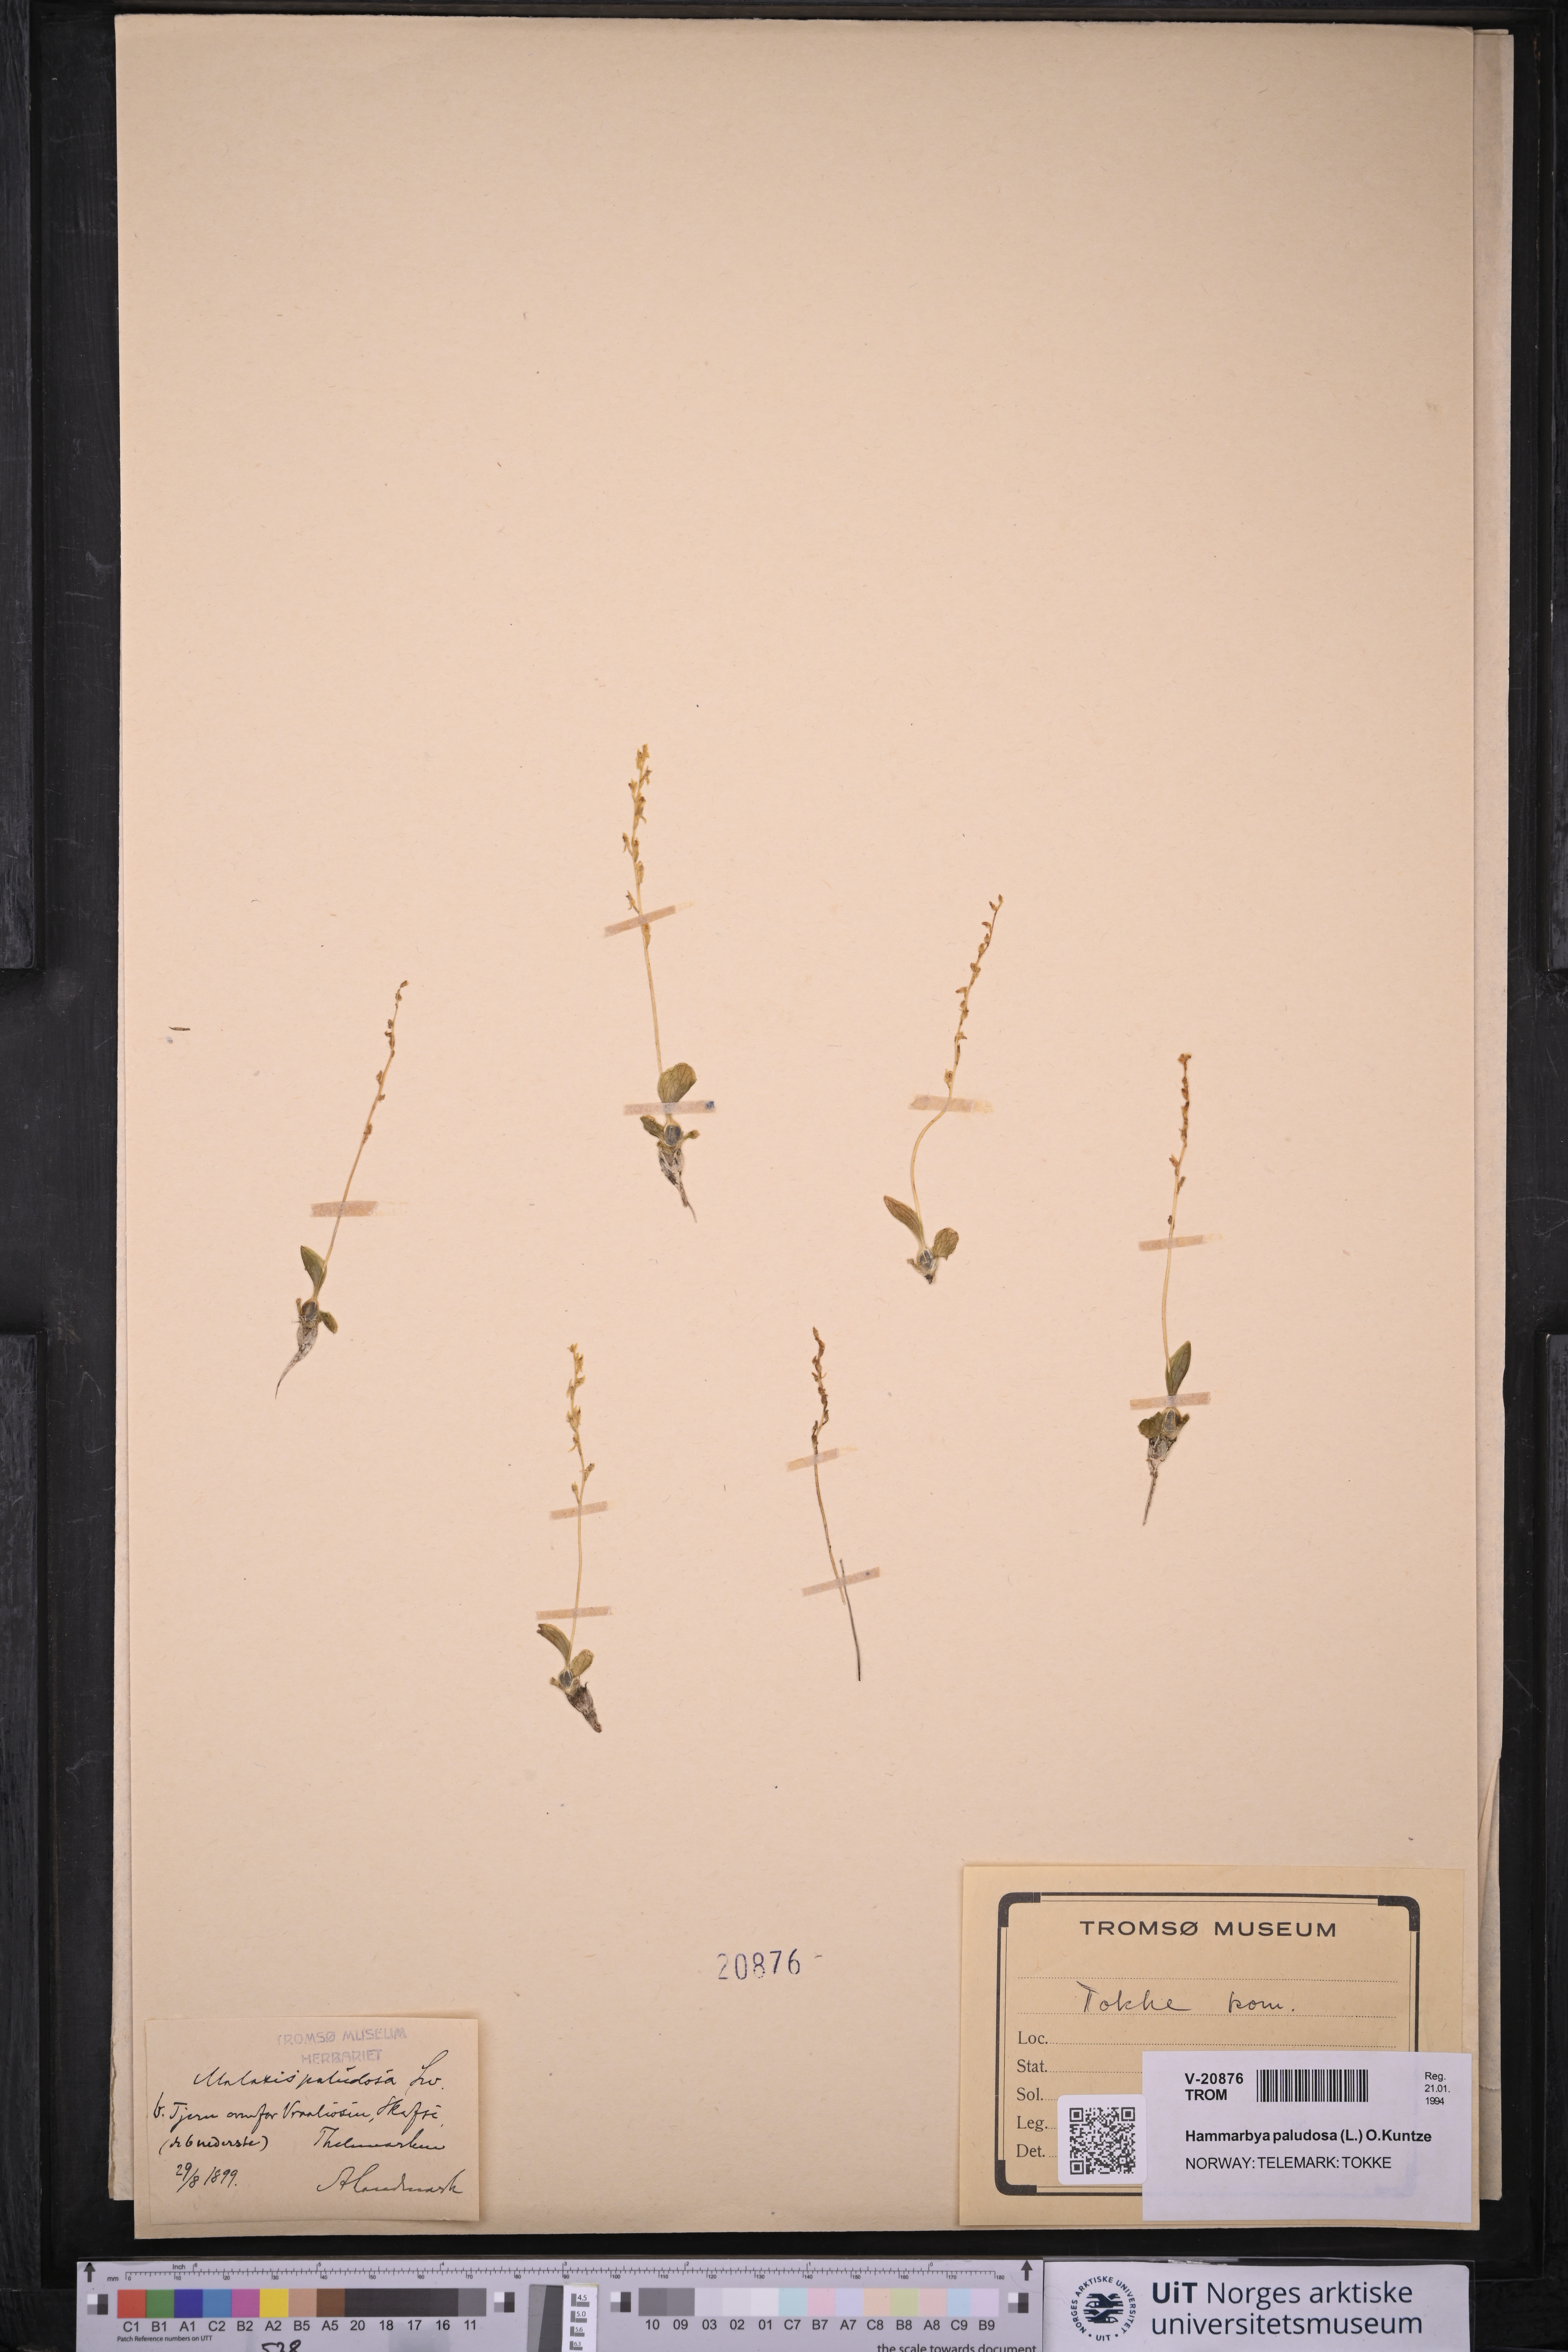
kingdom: Plantae
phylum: Tracheophyta
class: Liliopsida
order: Asparagales
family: Orchidaceae
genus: Hammarbya
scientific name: Hammarbya paludosa
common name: Bog orchid
